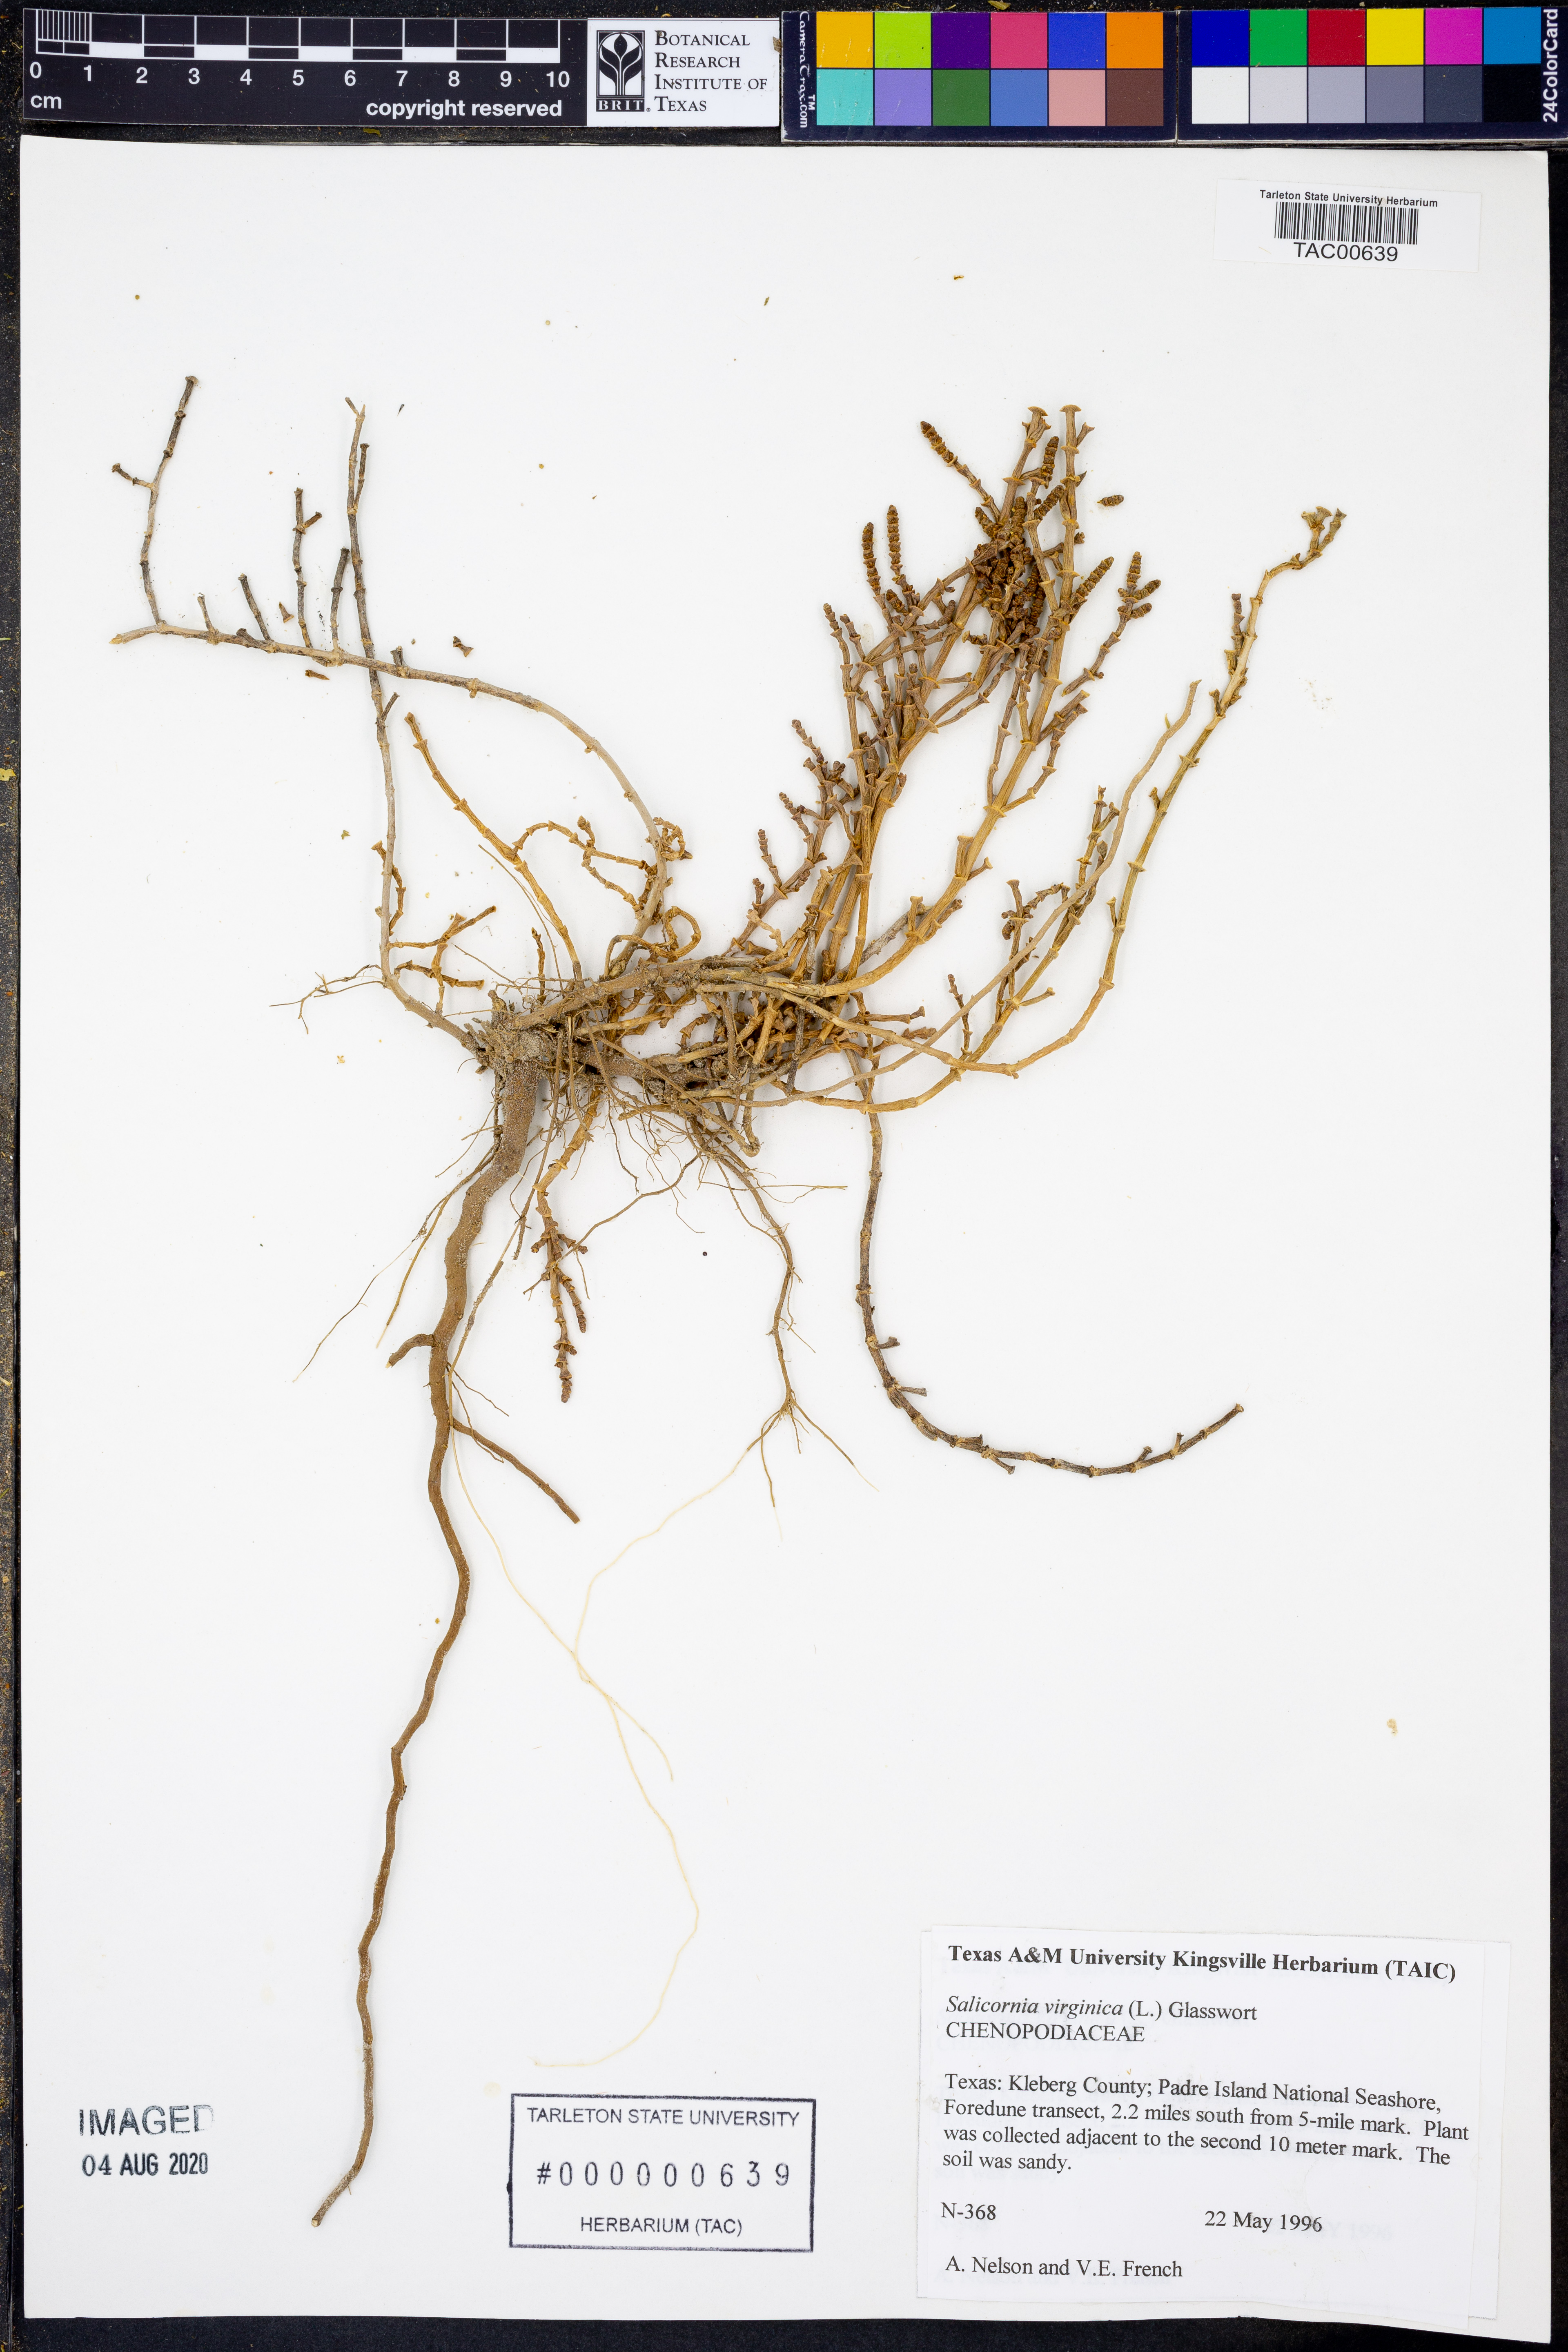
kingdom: Plantae
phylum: Tracheophyta
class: Magnoliopsida
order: Caryophyllales
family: Amaranthaceae
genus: Salicornia
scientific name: Salicornia virginica
